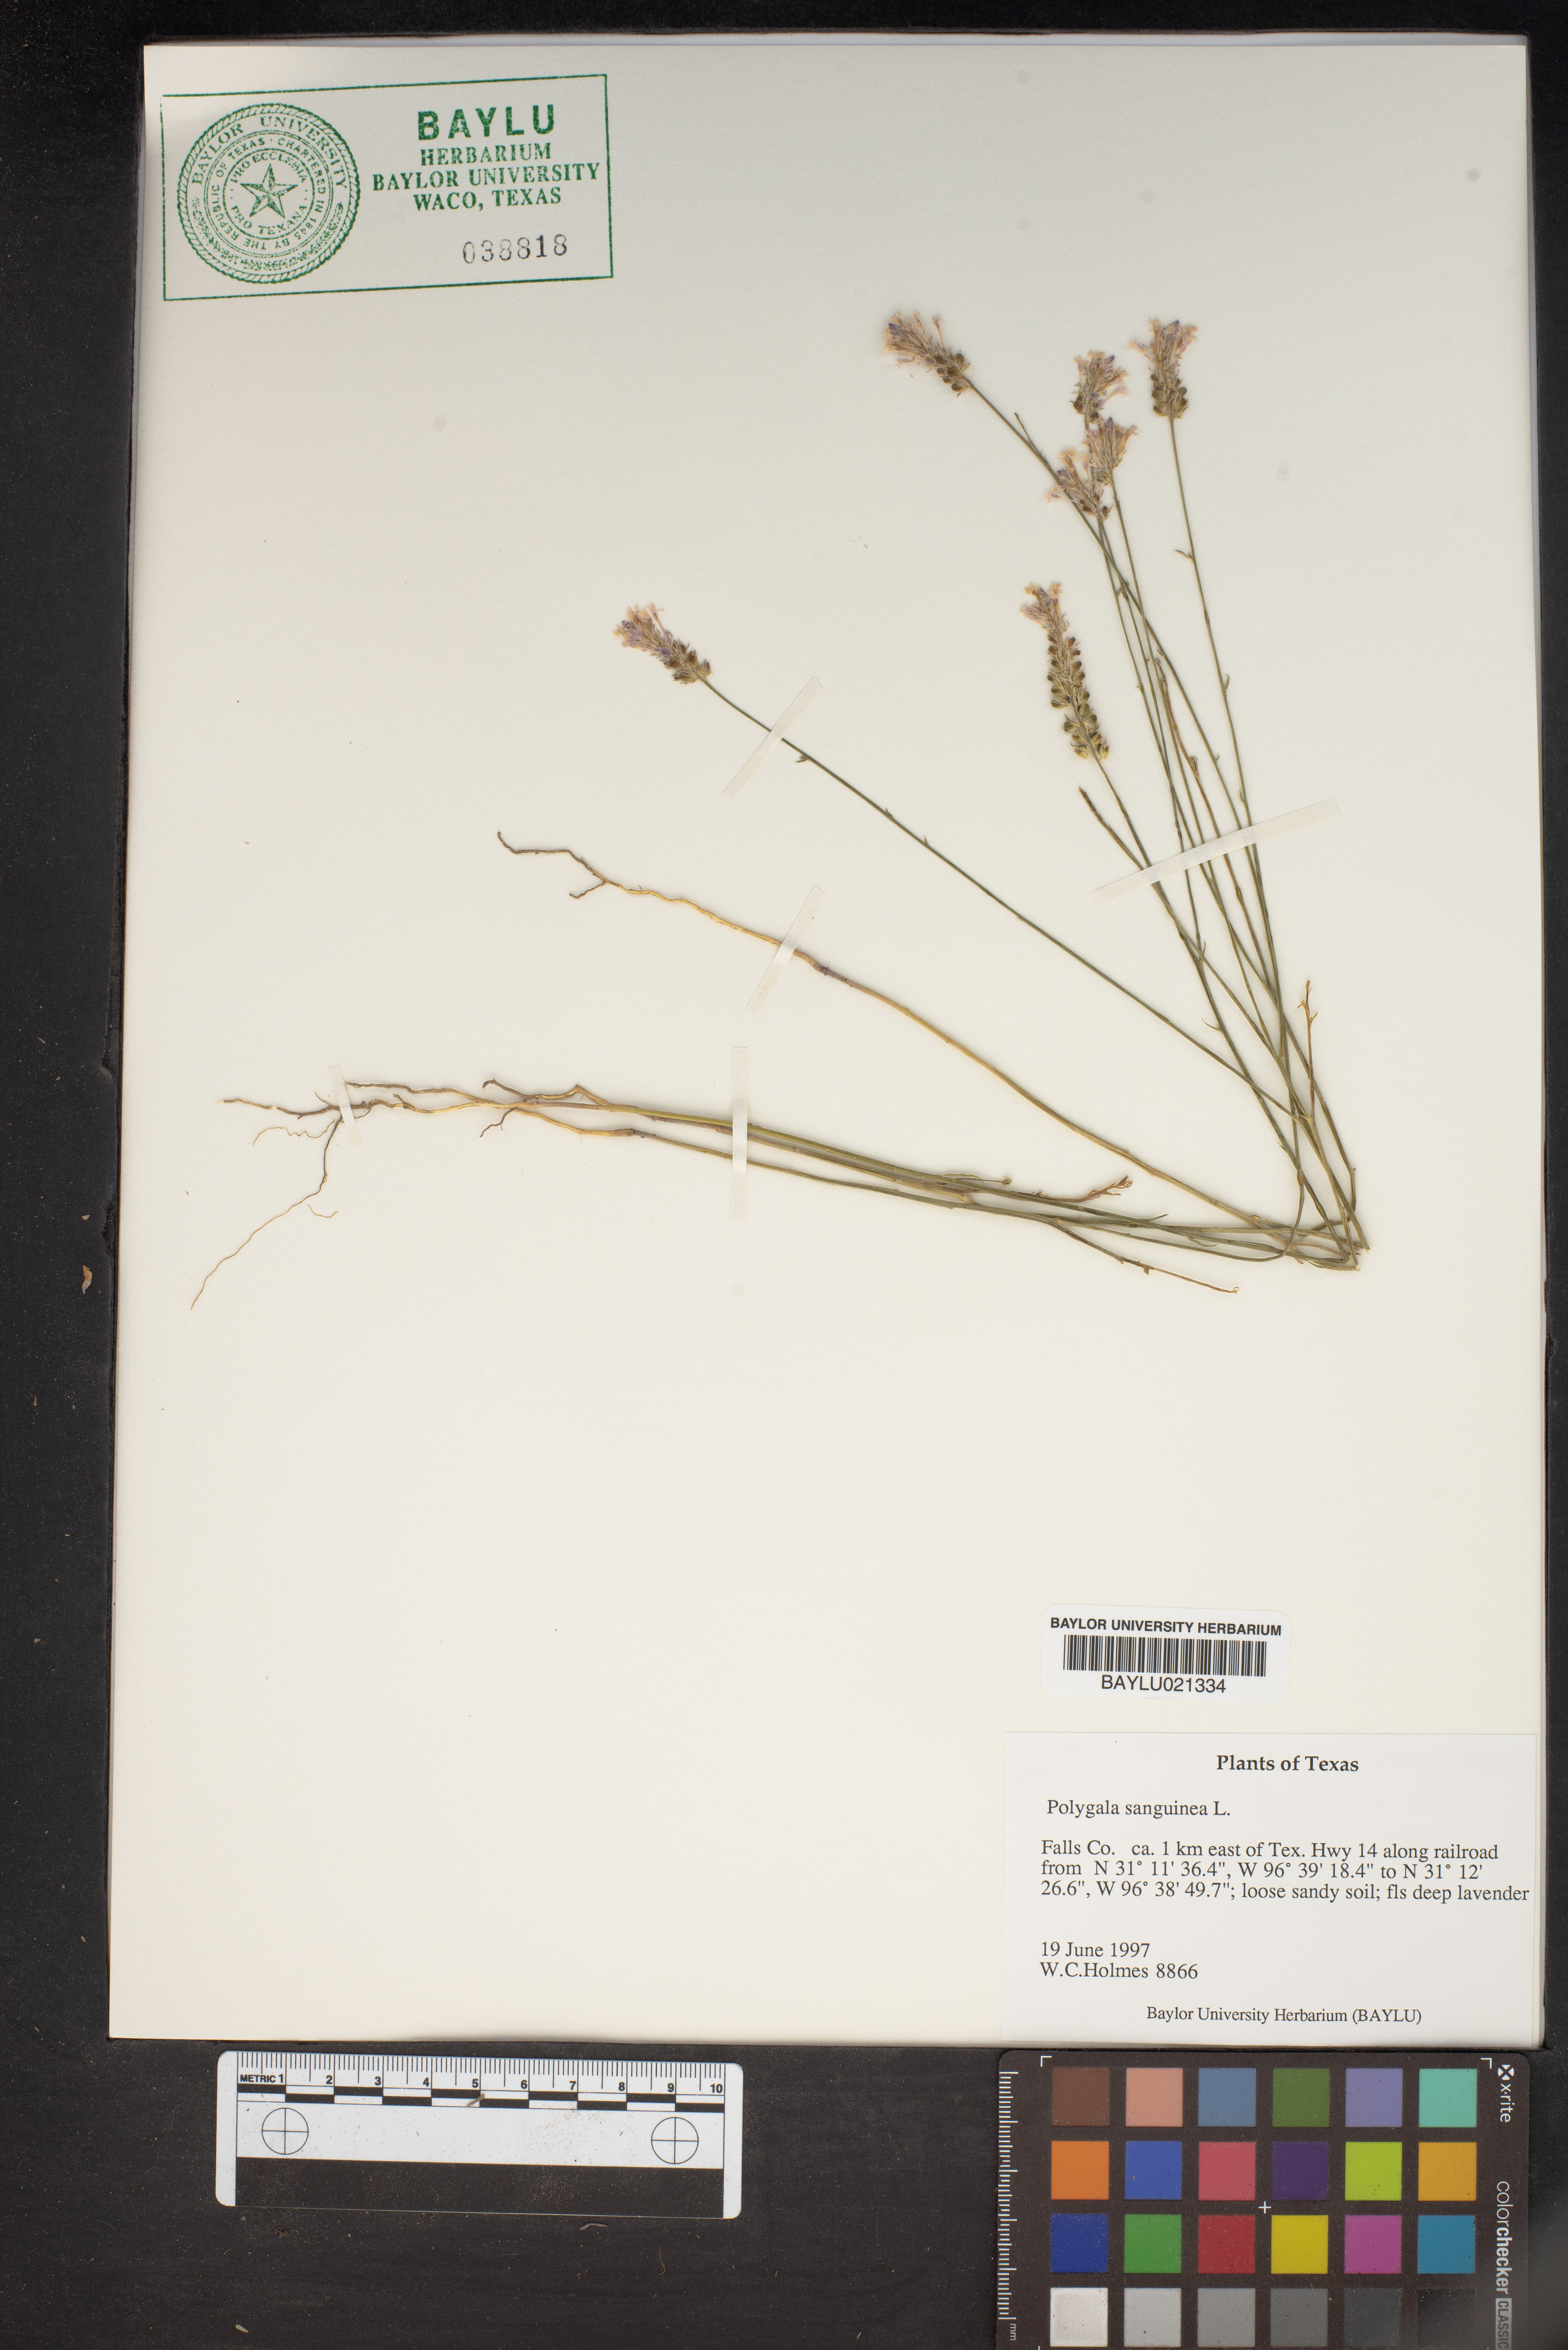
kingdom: Plantae
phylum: Tracheophyta
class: Magnoliopsida
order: Fabales
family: Polygalaceae
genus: Polygala
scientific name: Polygala sanguinea
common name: Blood milkwort
